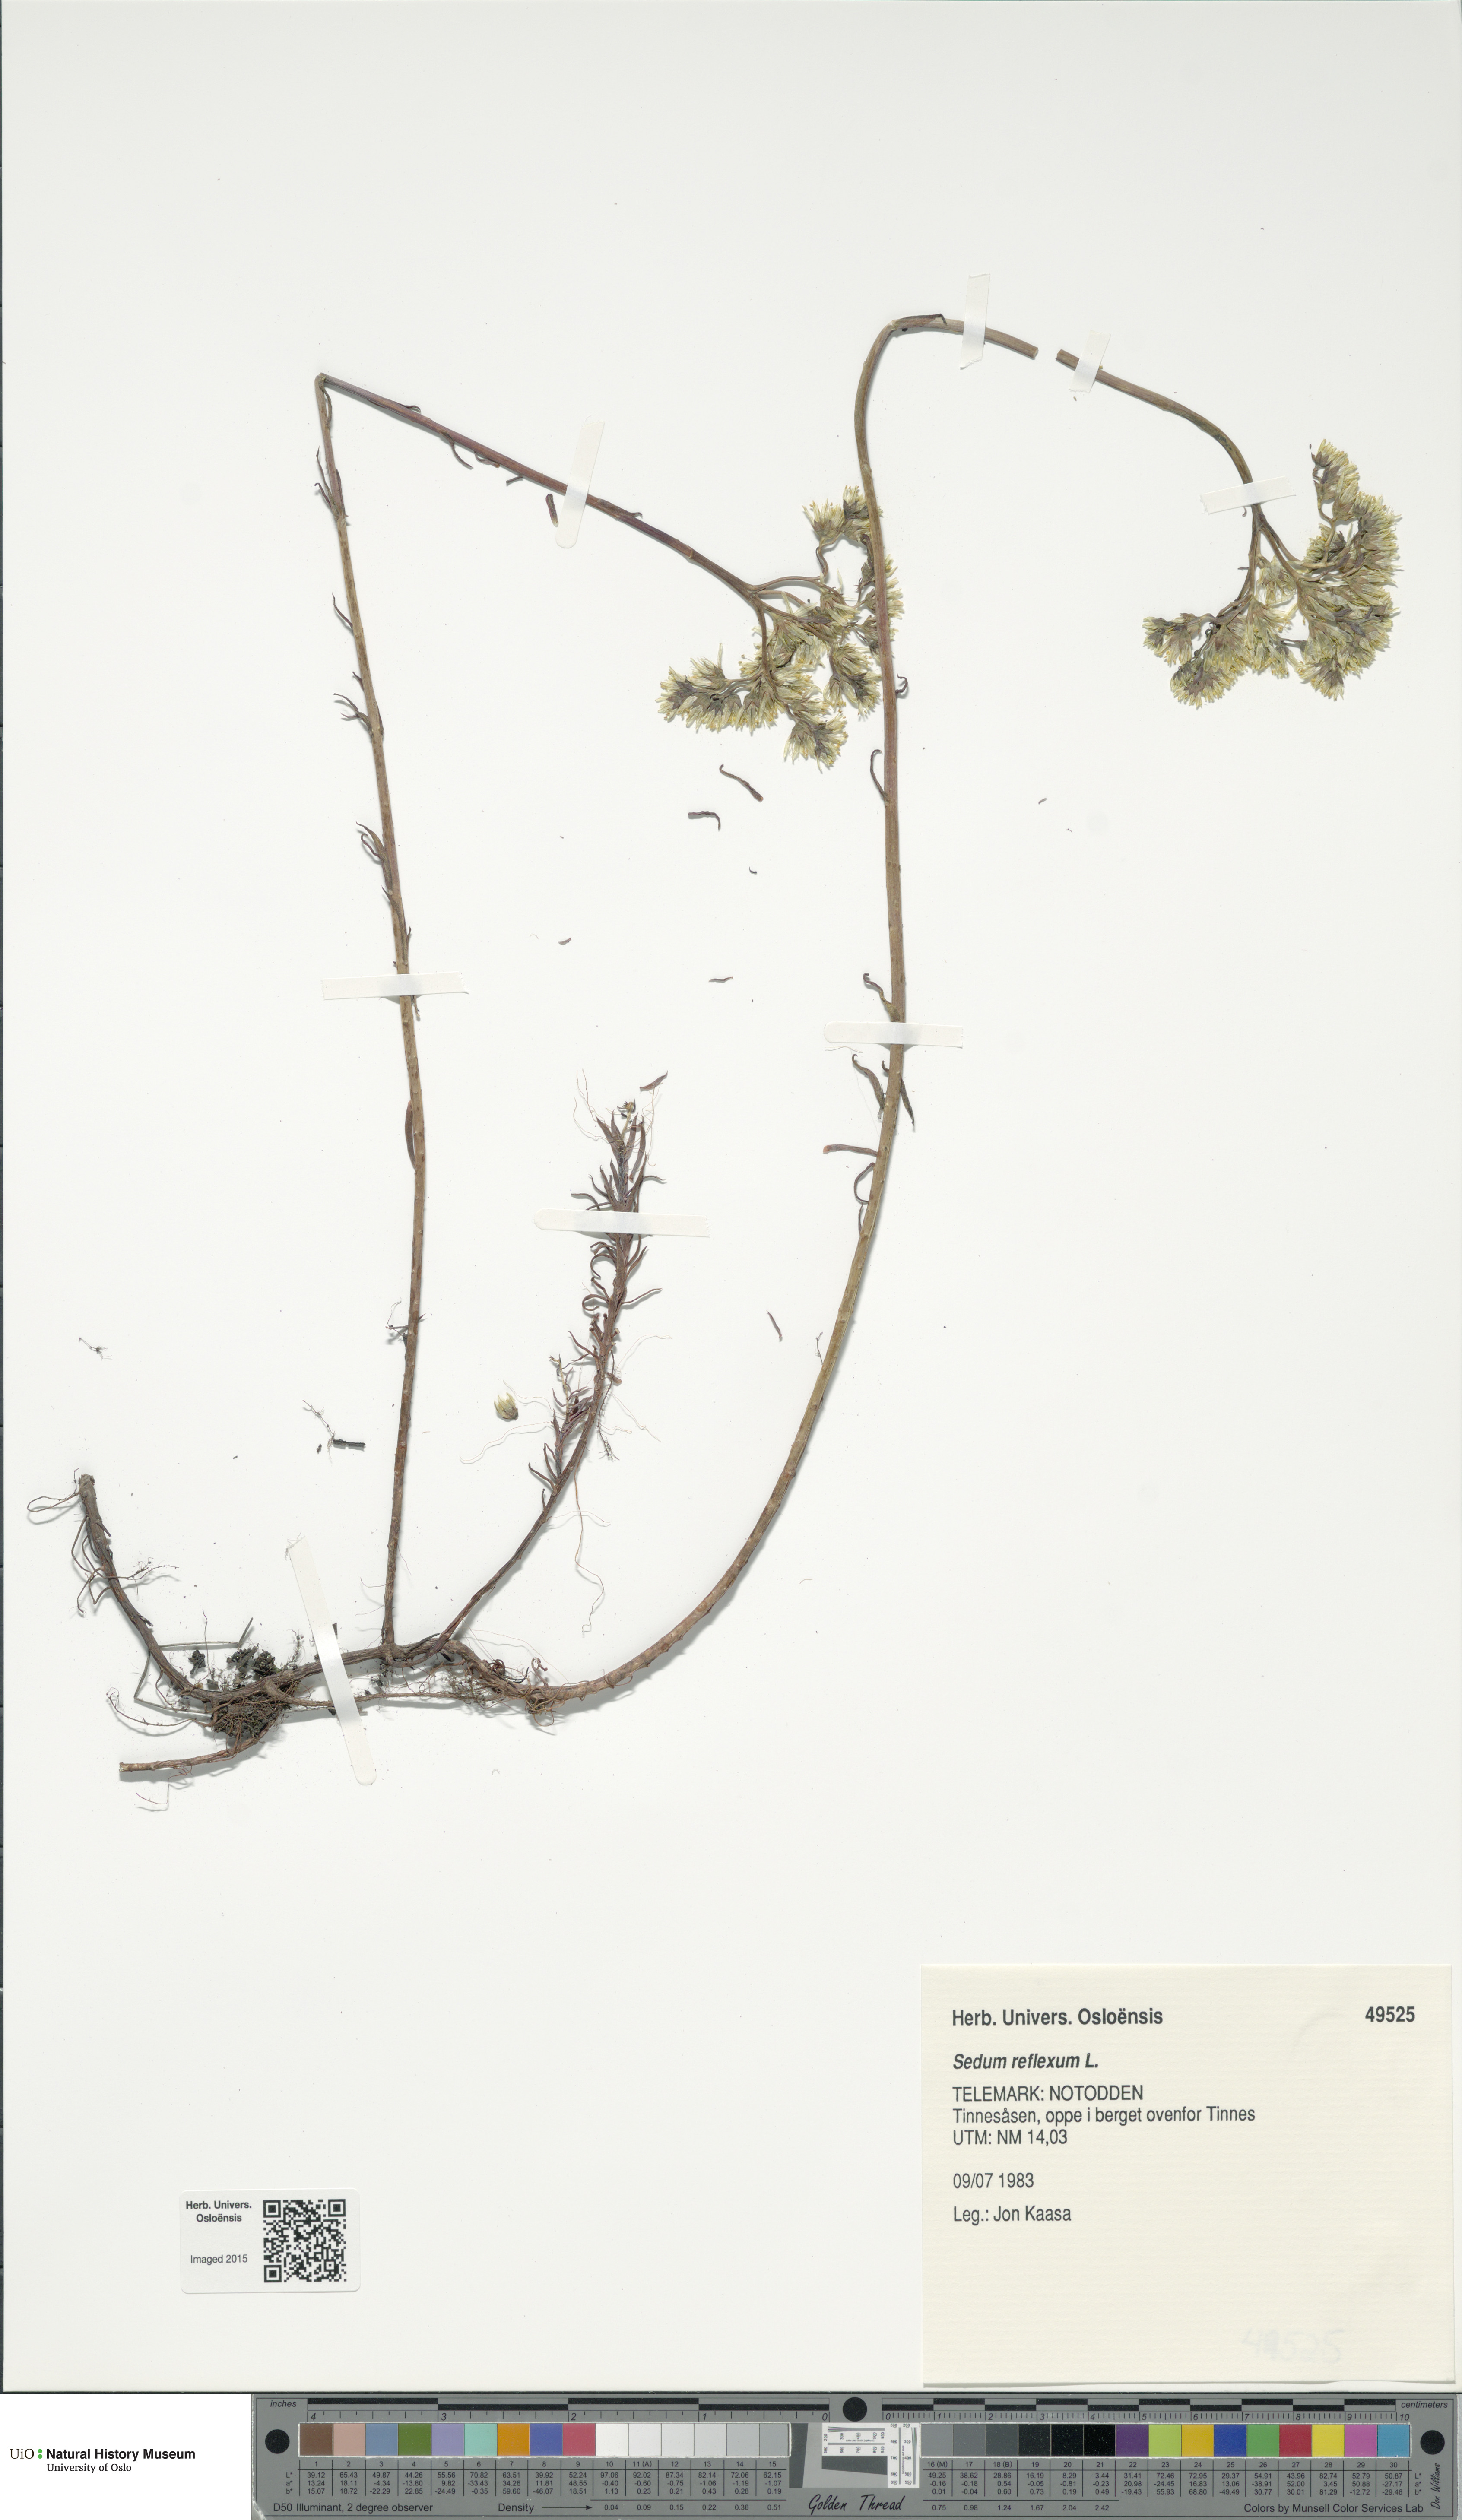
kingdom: Plantae
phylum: Tracheophyta
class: Magnoliopsida
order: Saxifragales
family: Crassulaceae
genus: Petrosedum
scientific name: Petrosedum rupestre
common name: Jenny's stonecrop
